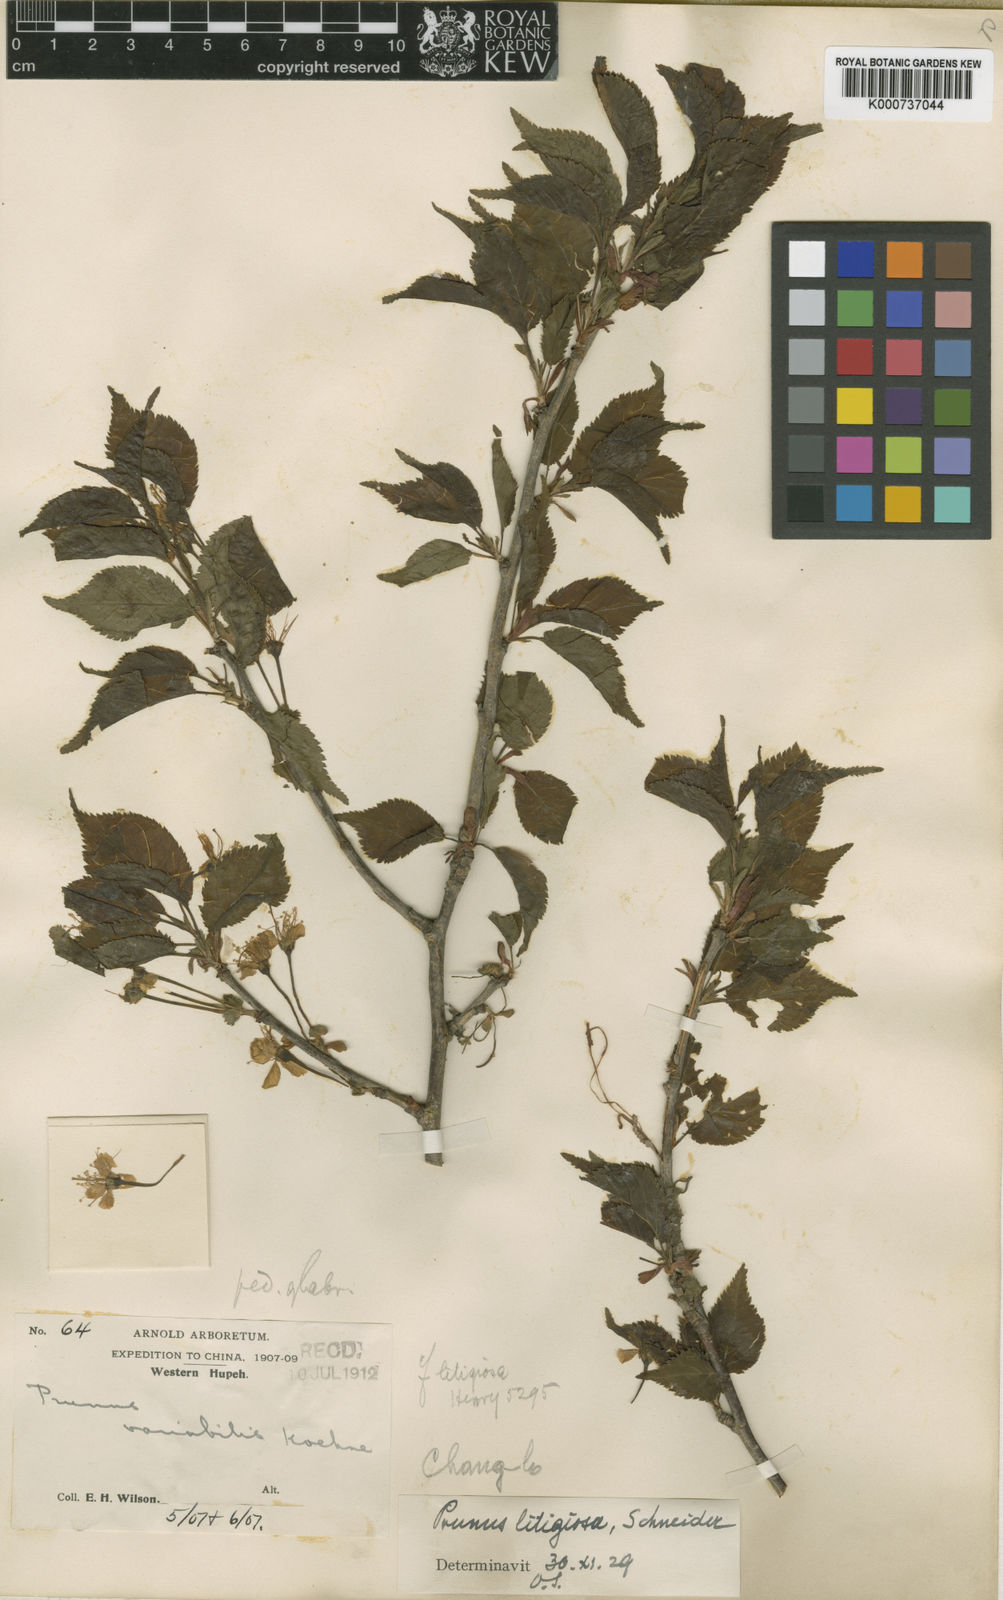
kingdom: Plantae
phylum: Tracheophyta
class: Magnoliopsida
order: Rosales
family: Rosaceae
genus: Prunus
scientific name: Prunus clarofolia
